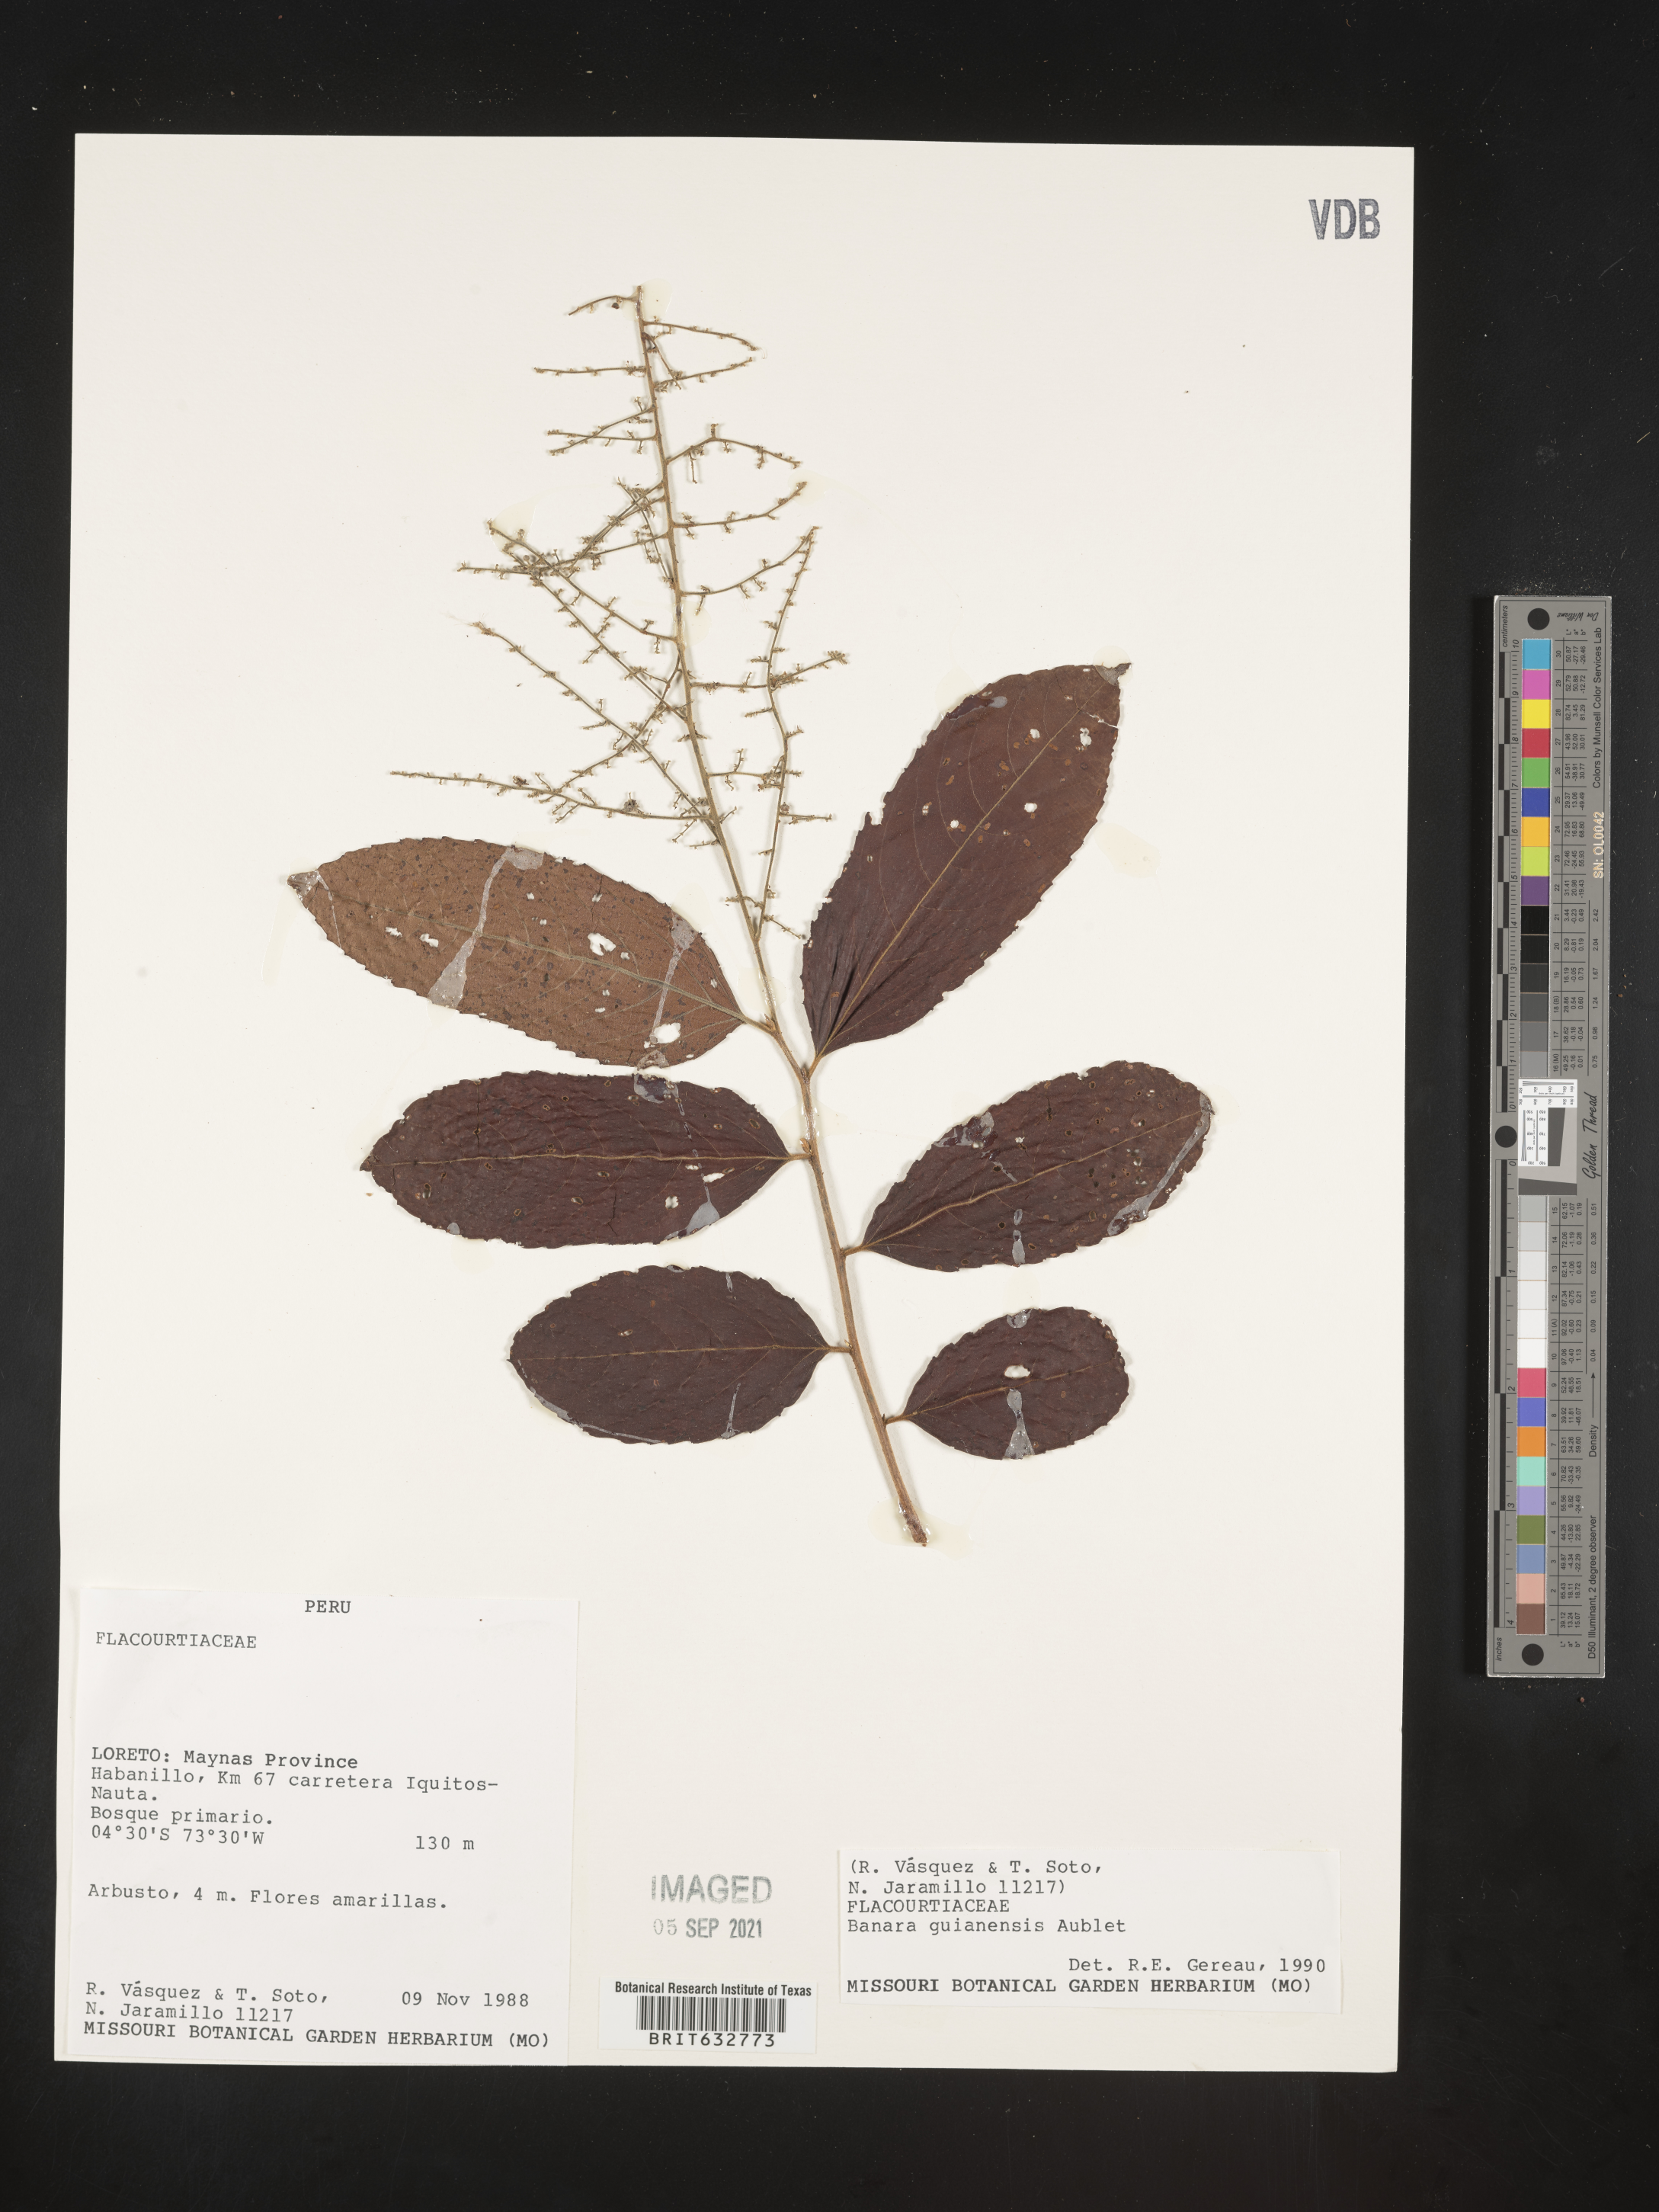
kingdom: Plantae
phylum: Tracheophyta
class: Magnoliopsida
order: Malpighiales
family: Salicaceae
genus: Banara
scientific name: Banara
